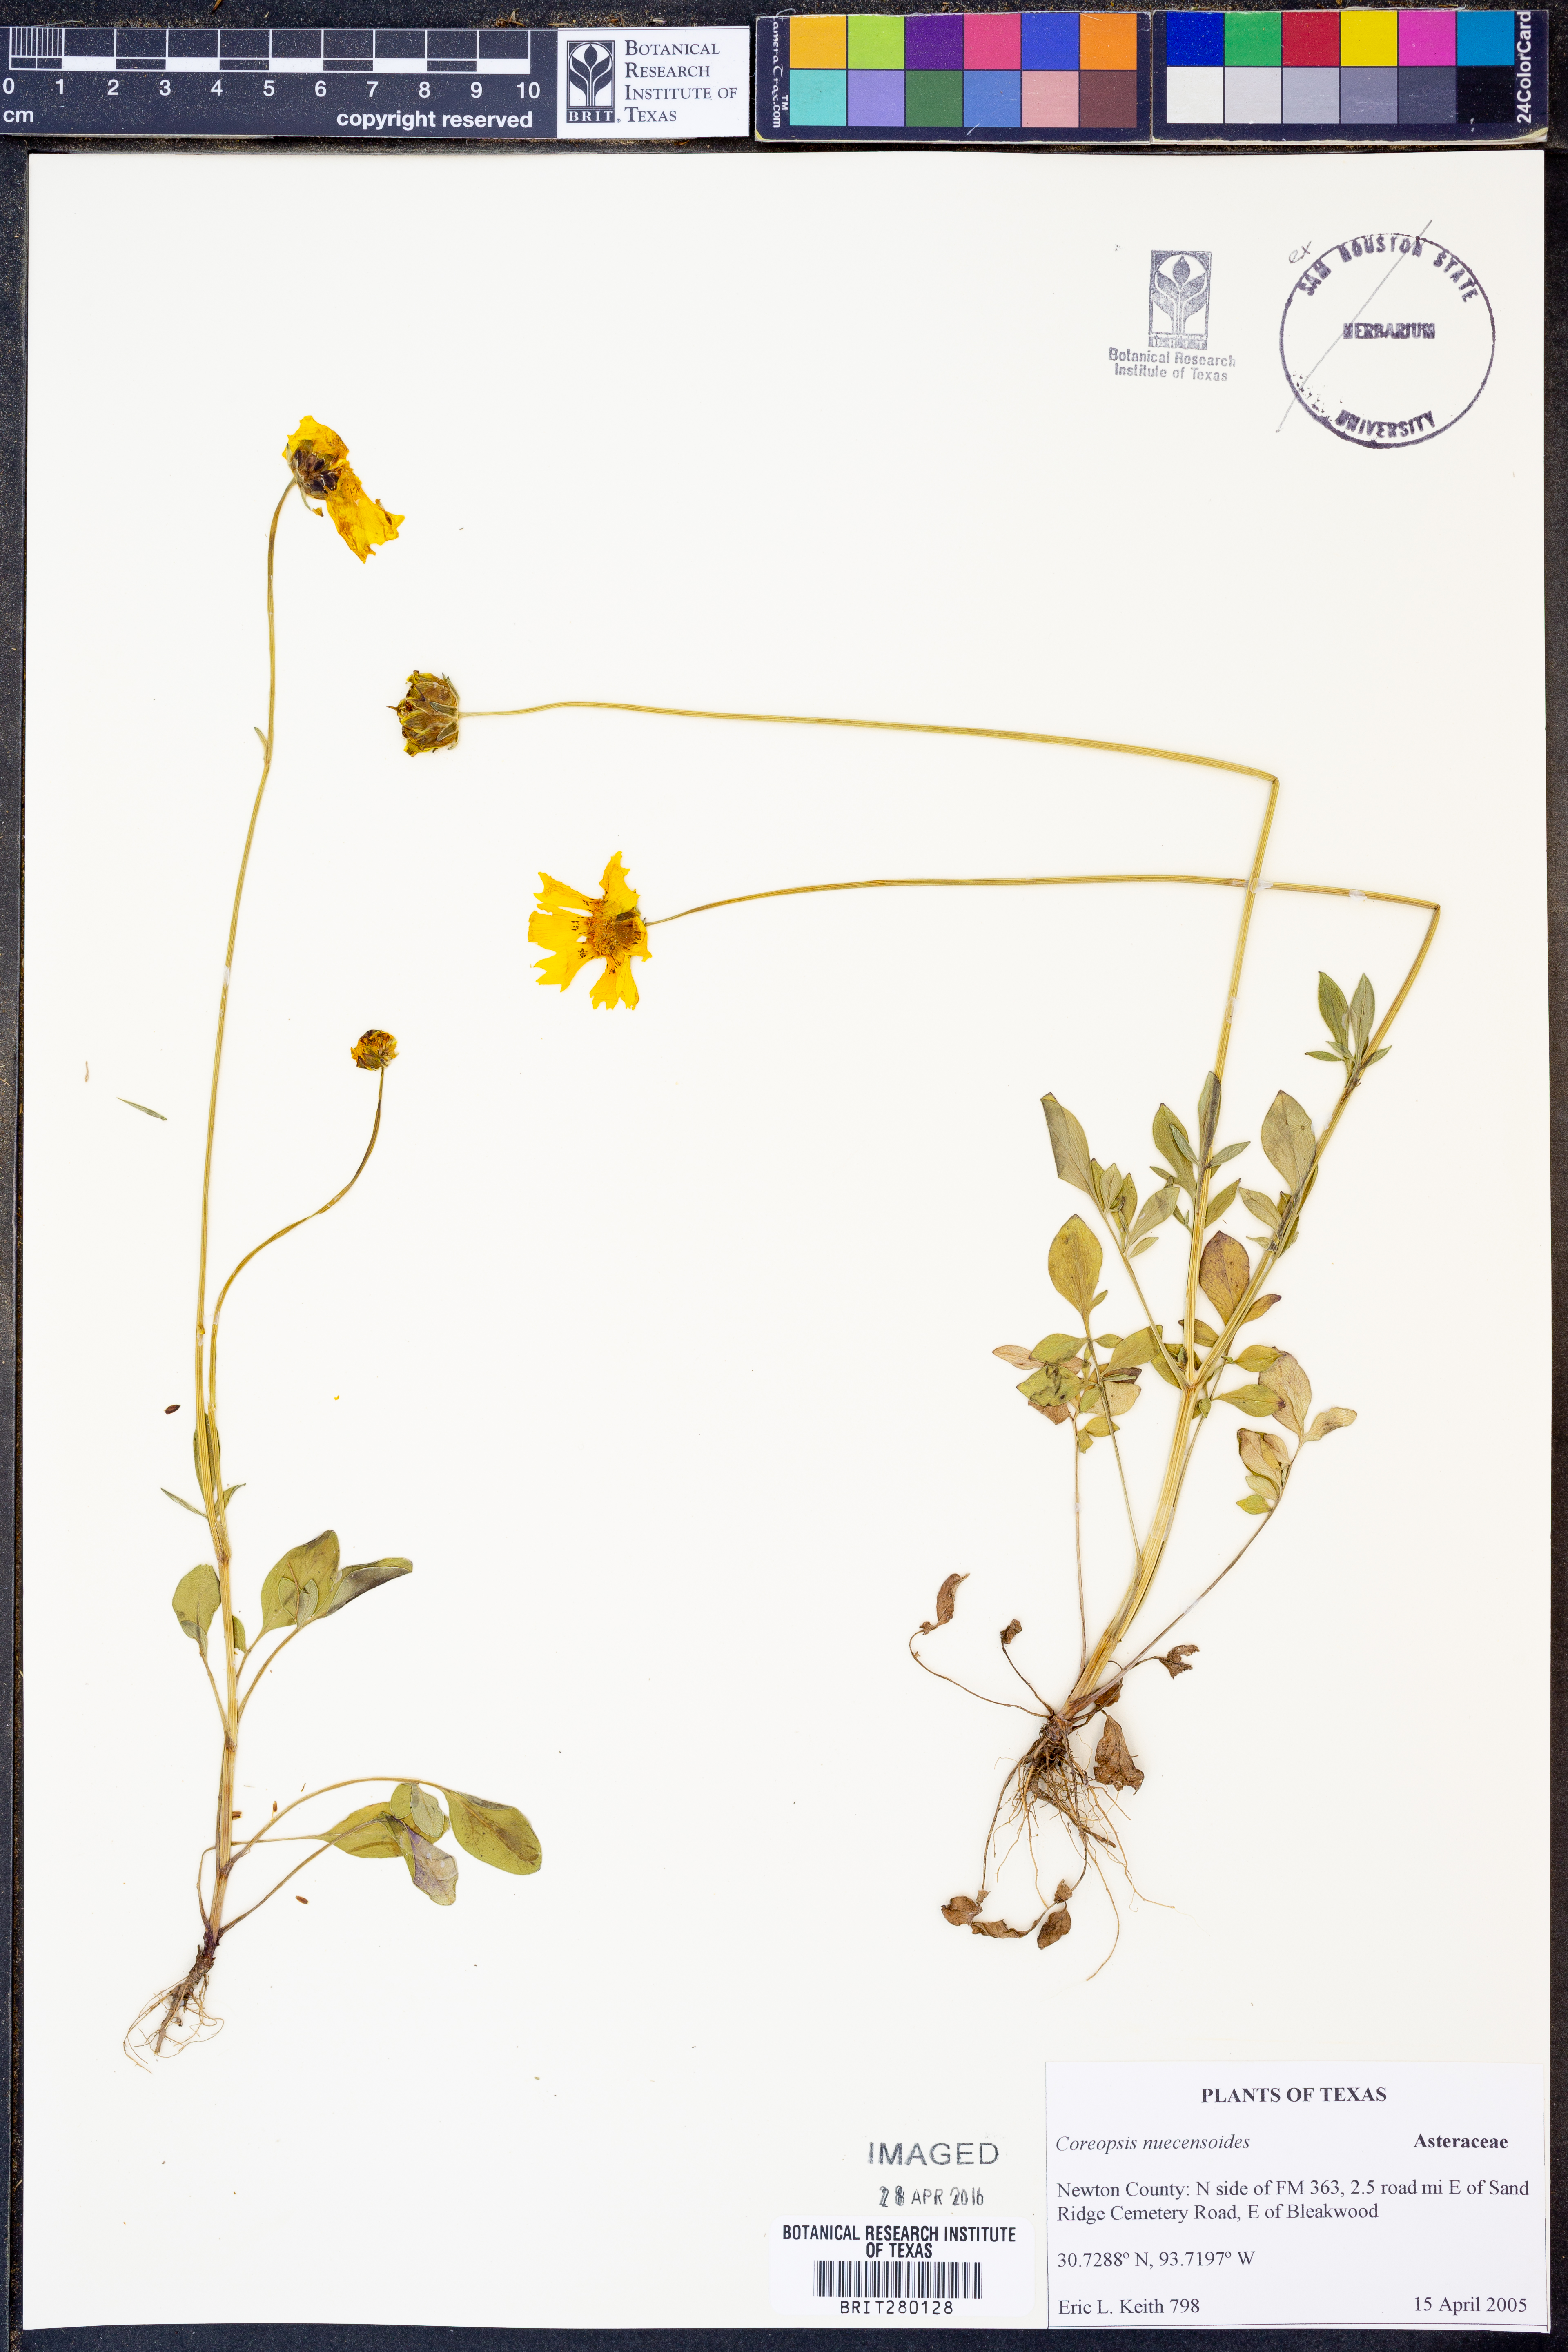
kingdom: Plantae
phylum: Tracheophyta
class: Magnoliopsida
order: Asterales
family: Asteraceae
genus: Coreopsis
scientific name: Coreopsis nuecensis
